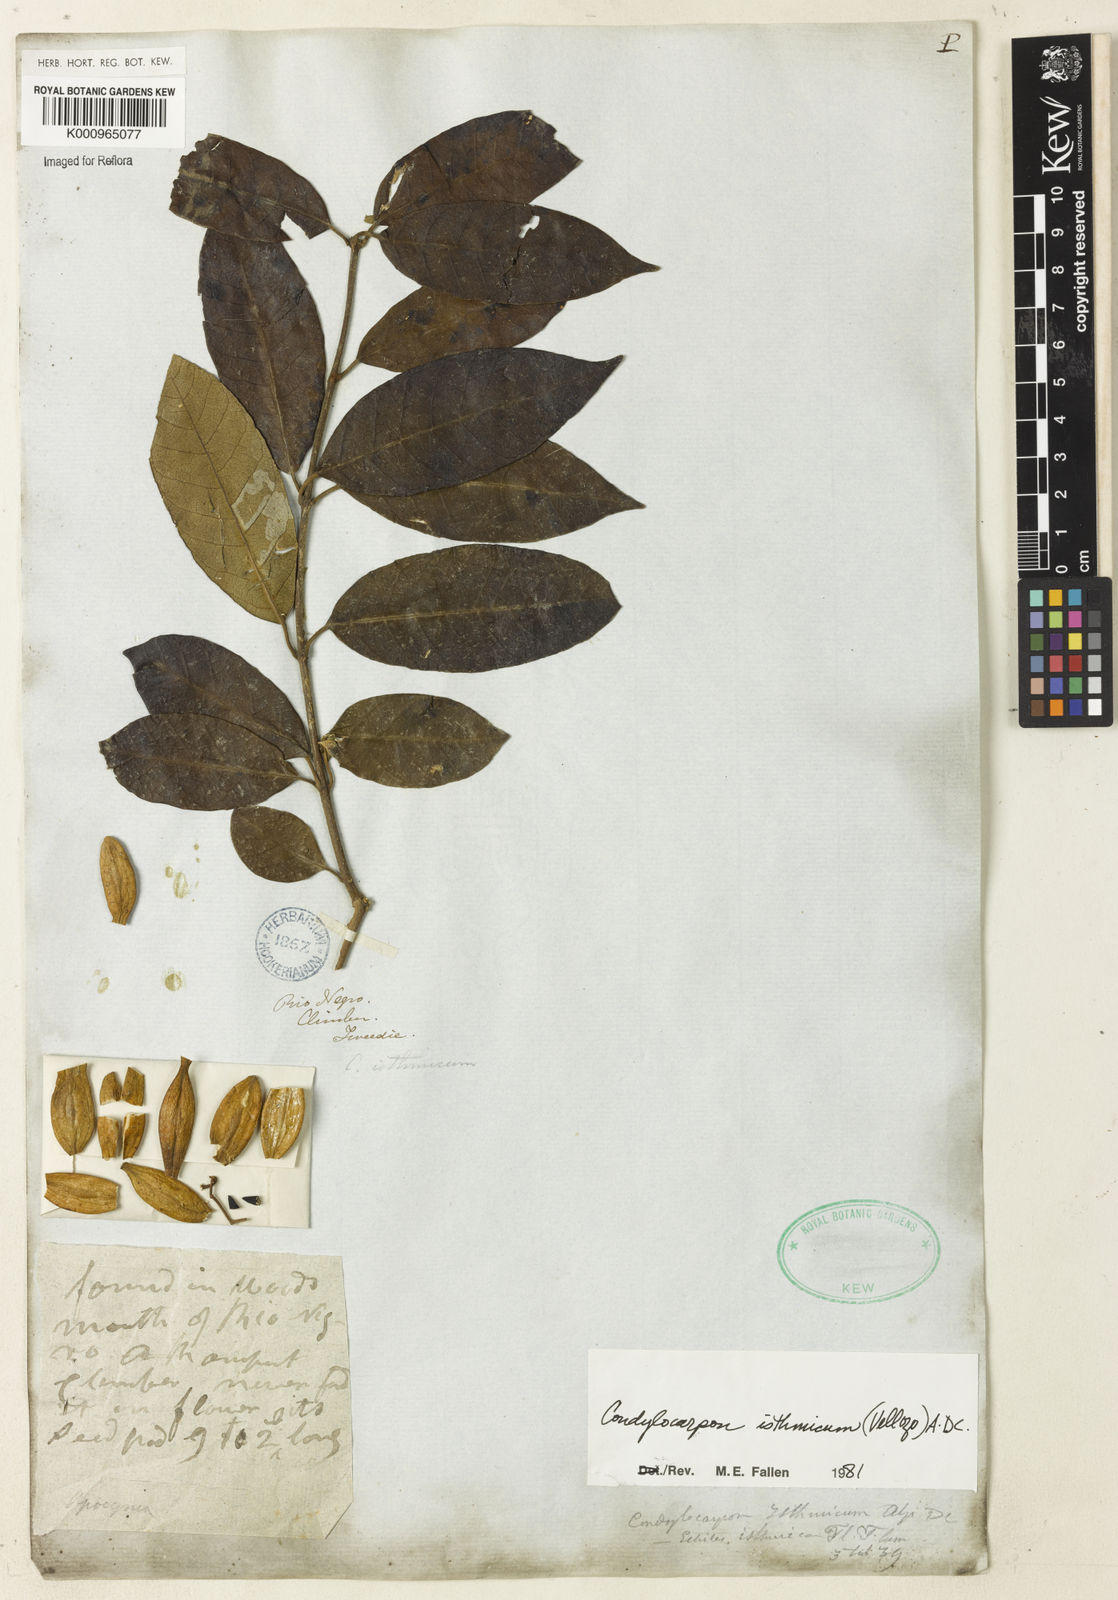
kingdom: Plantae
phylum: Tracheophyta
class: Magnoliopsida
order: Gentianales
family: Apocynaceae
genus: Condylocarpon
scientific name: Condylocarpon isthmicum
